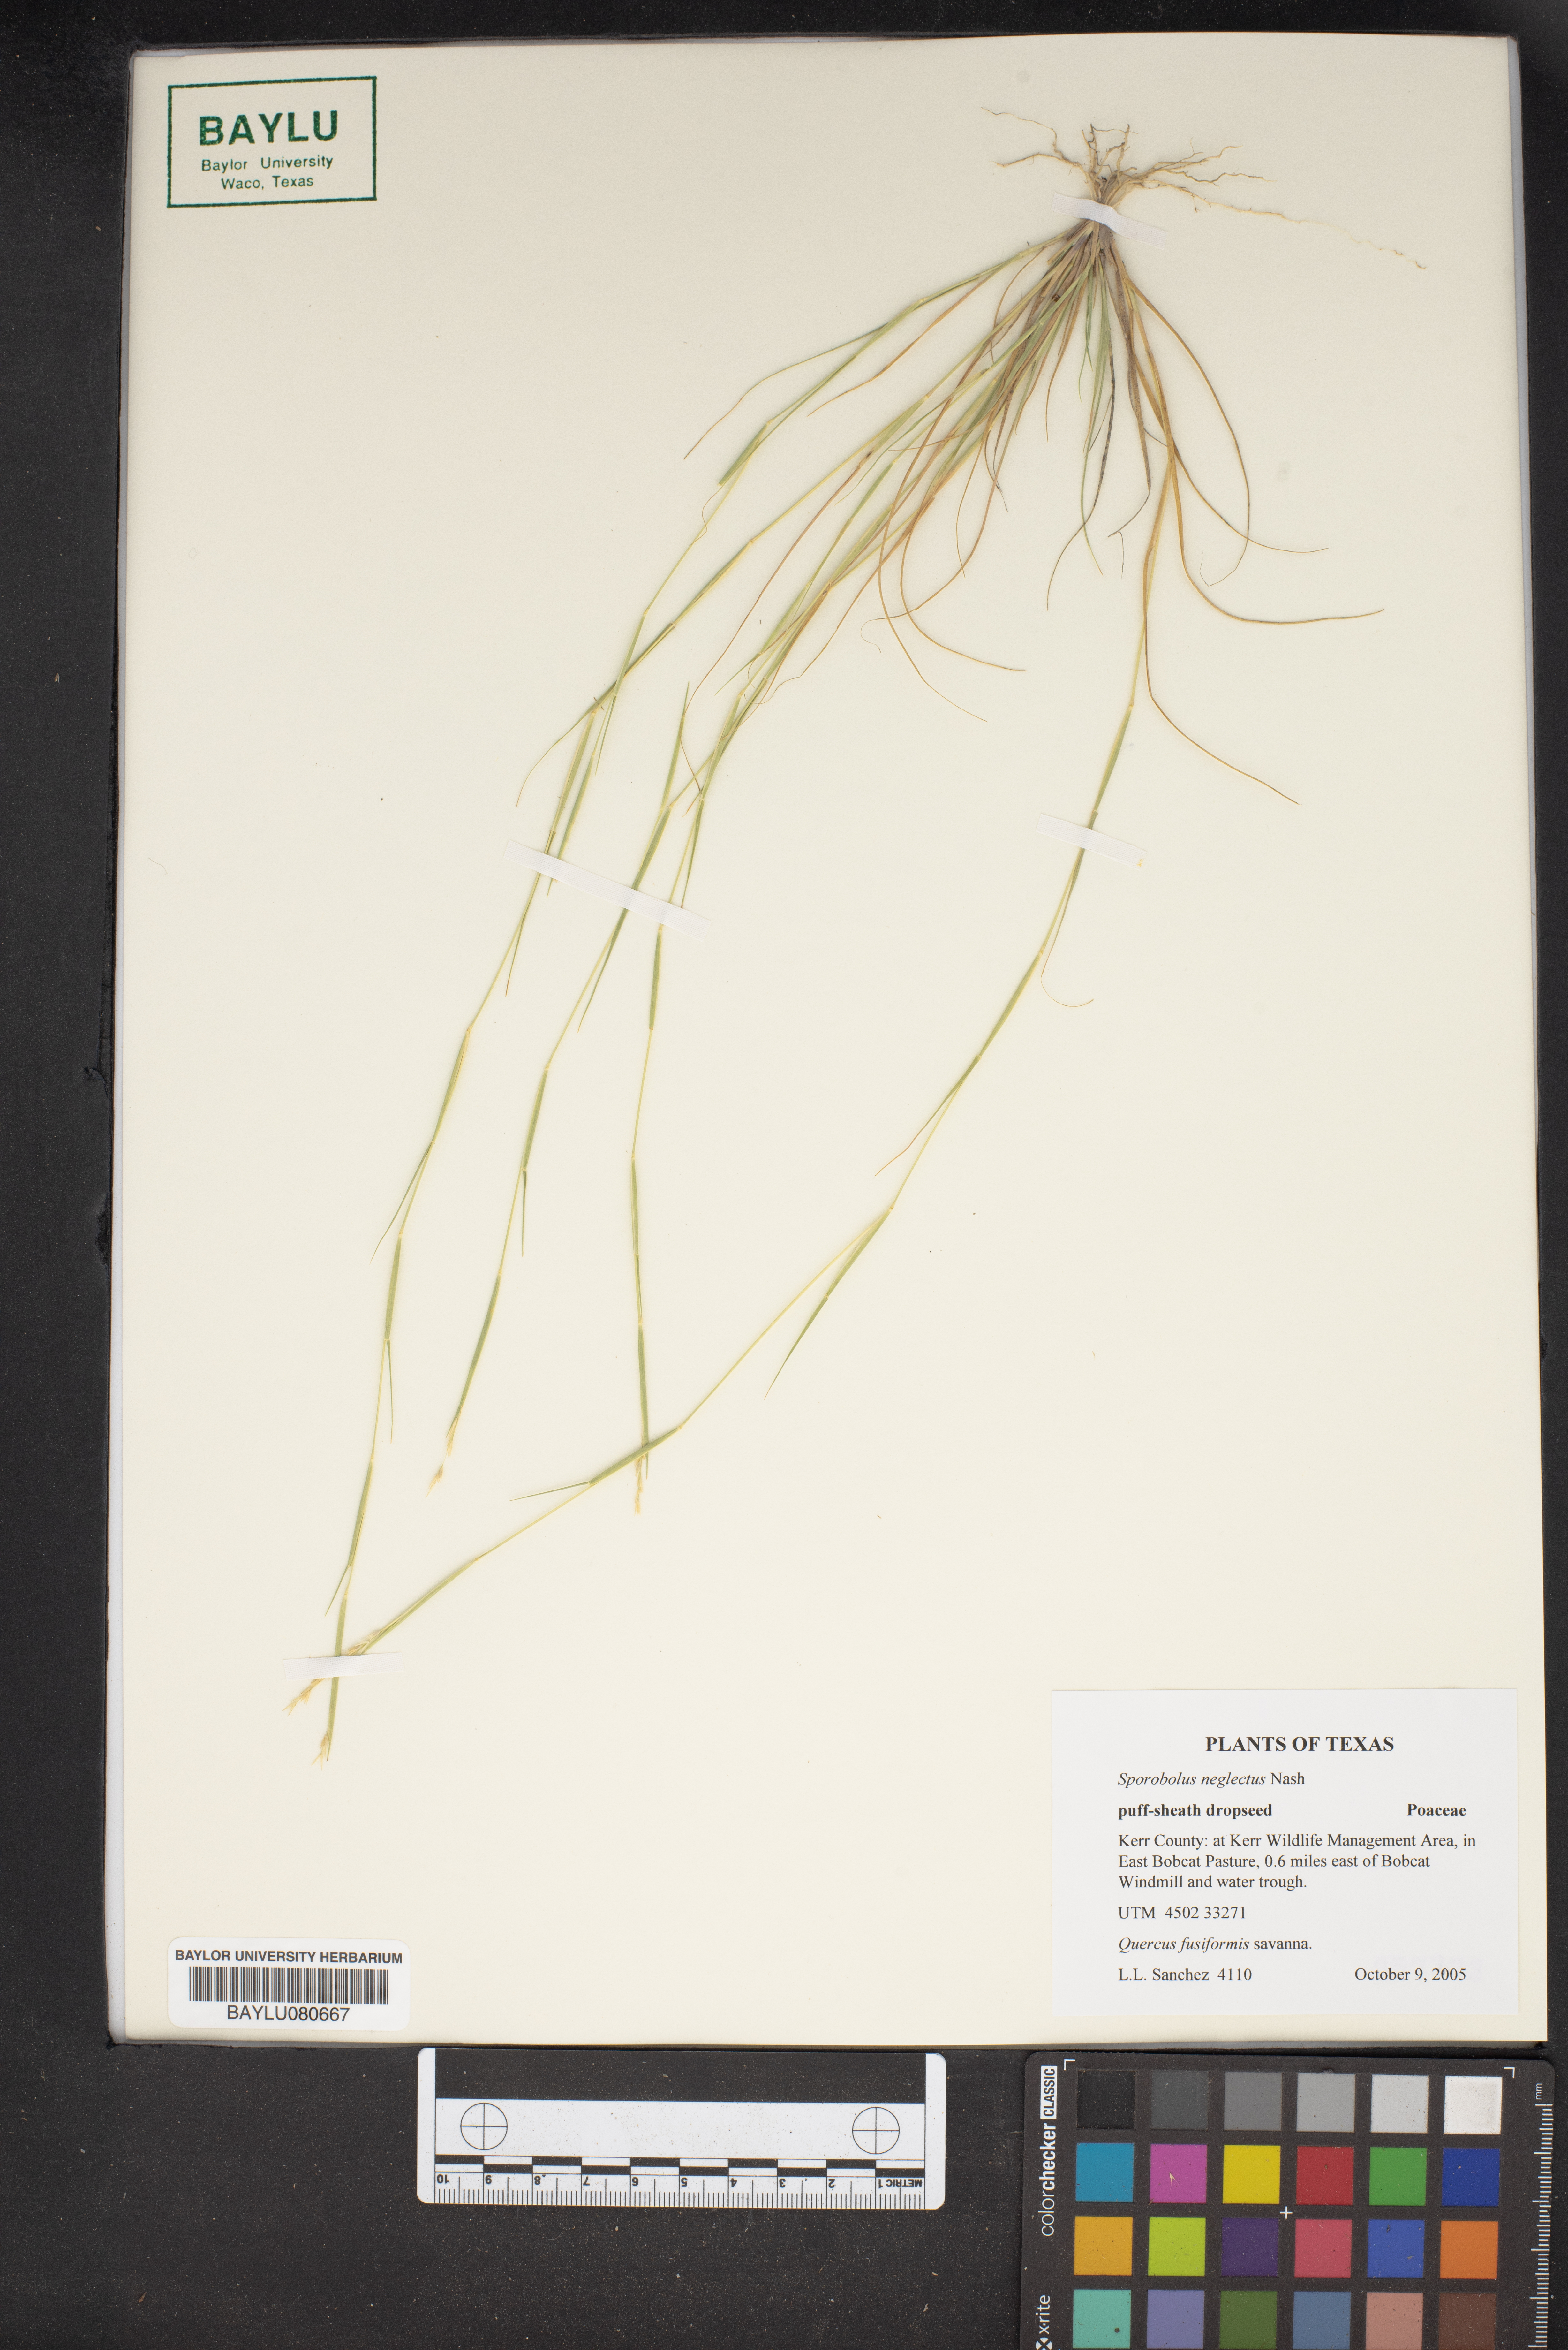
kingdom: Plantae
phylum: Tracheophyta
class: Liliopsida
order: Poales
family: Poaceae
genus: Sporobolus
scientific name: Sporobolus neglectus
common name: Annual dropseed
